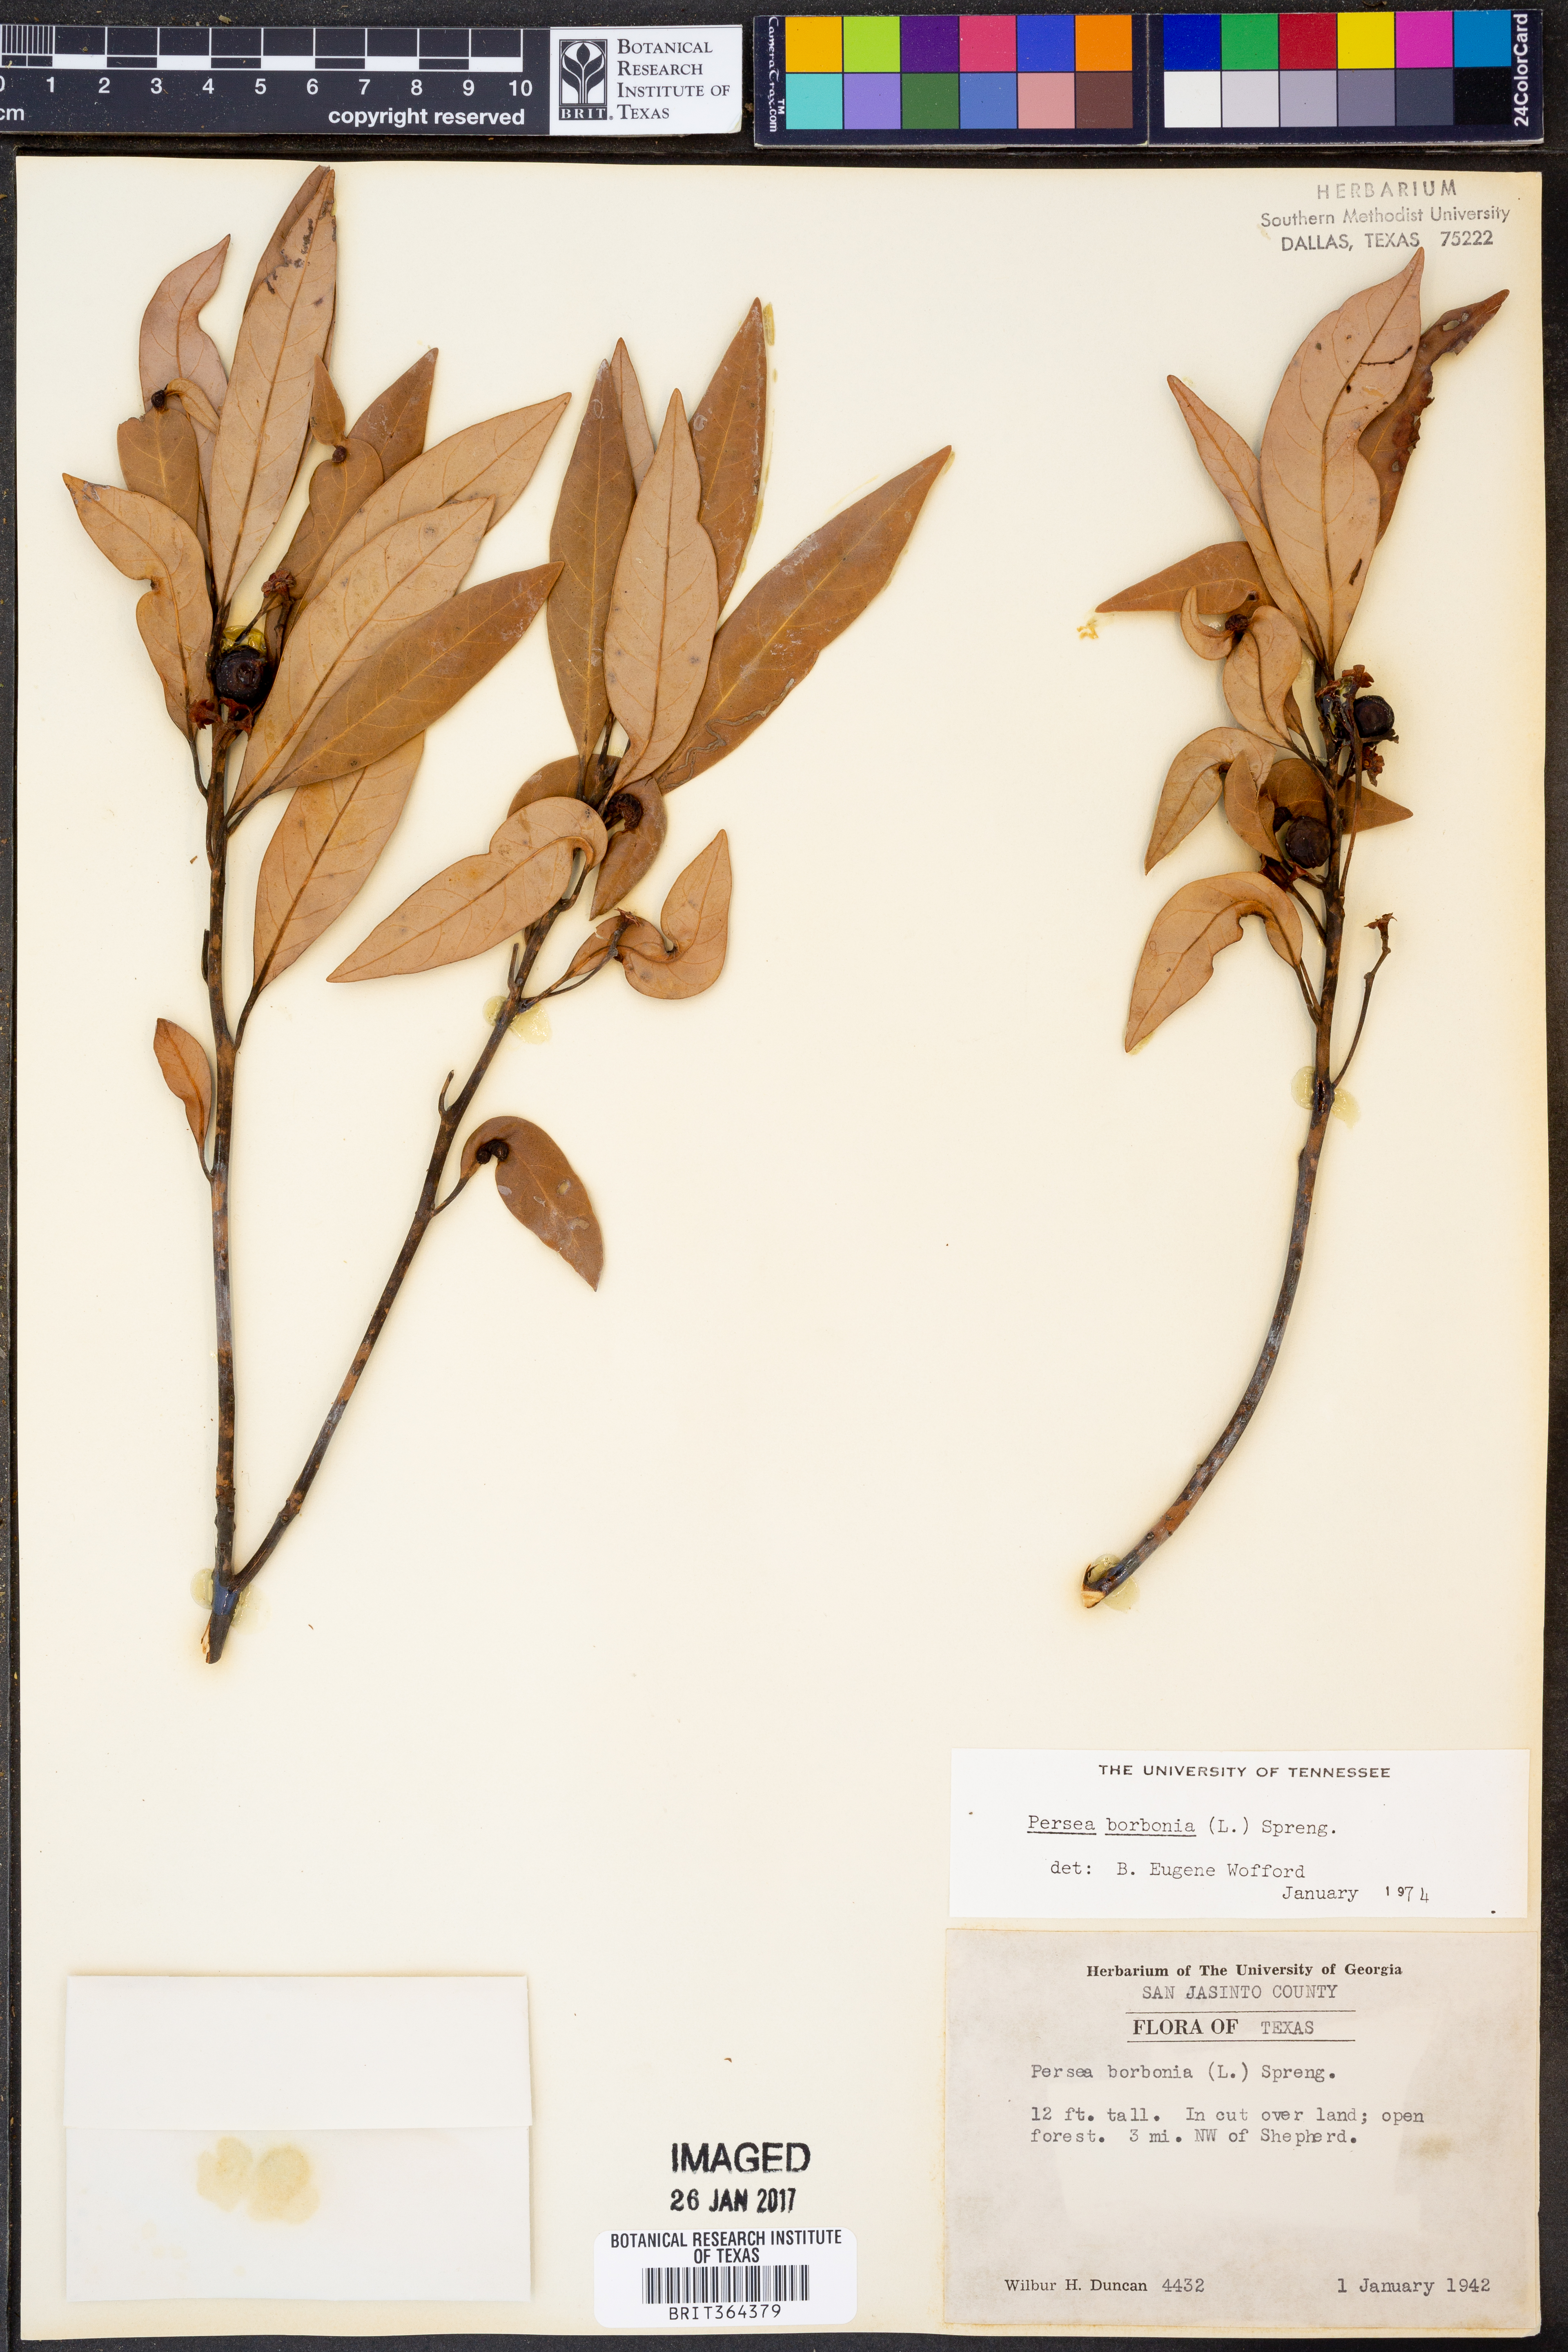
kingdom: Plantae
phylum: Tracheophyta
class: Magnoliopsida
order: Laurales
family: Lauraceae
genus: Persea
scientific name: Persea borbonia
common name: Redbay
